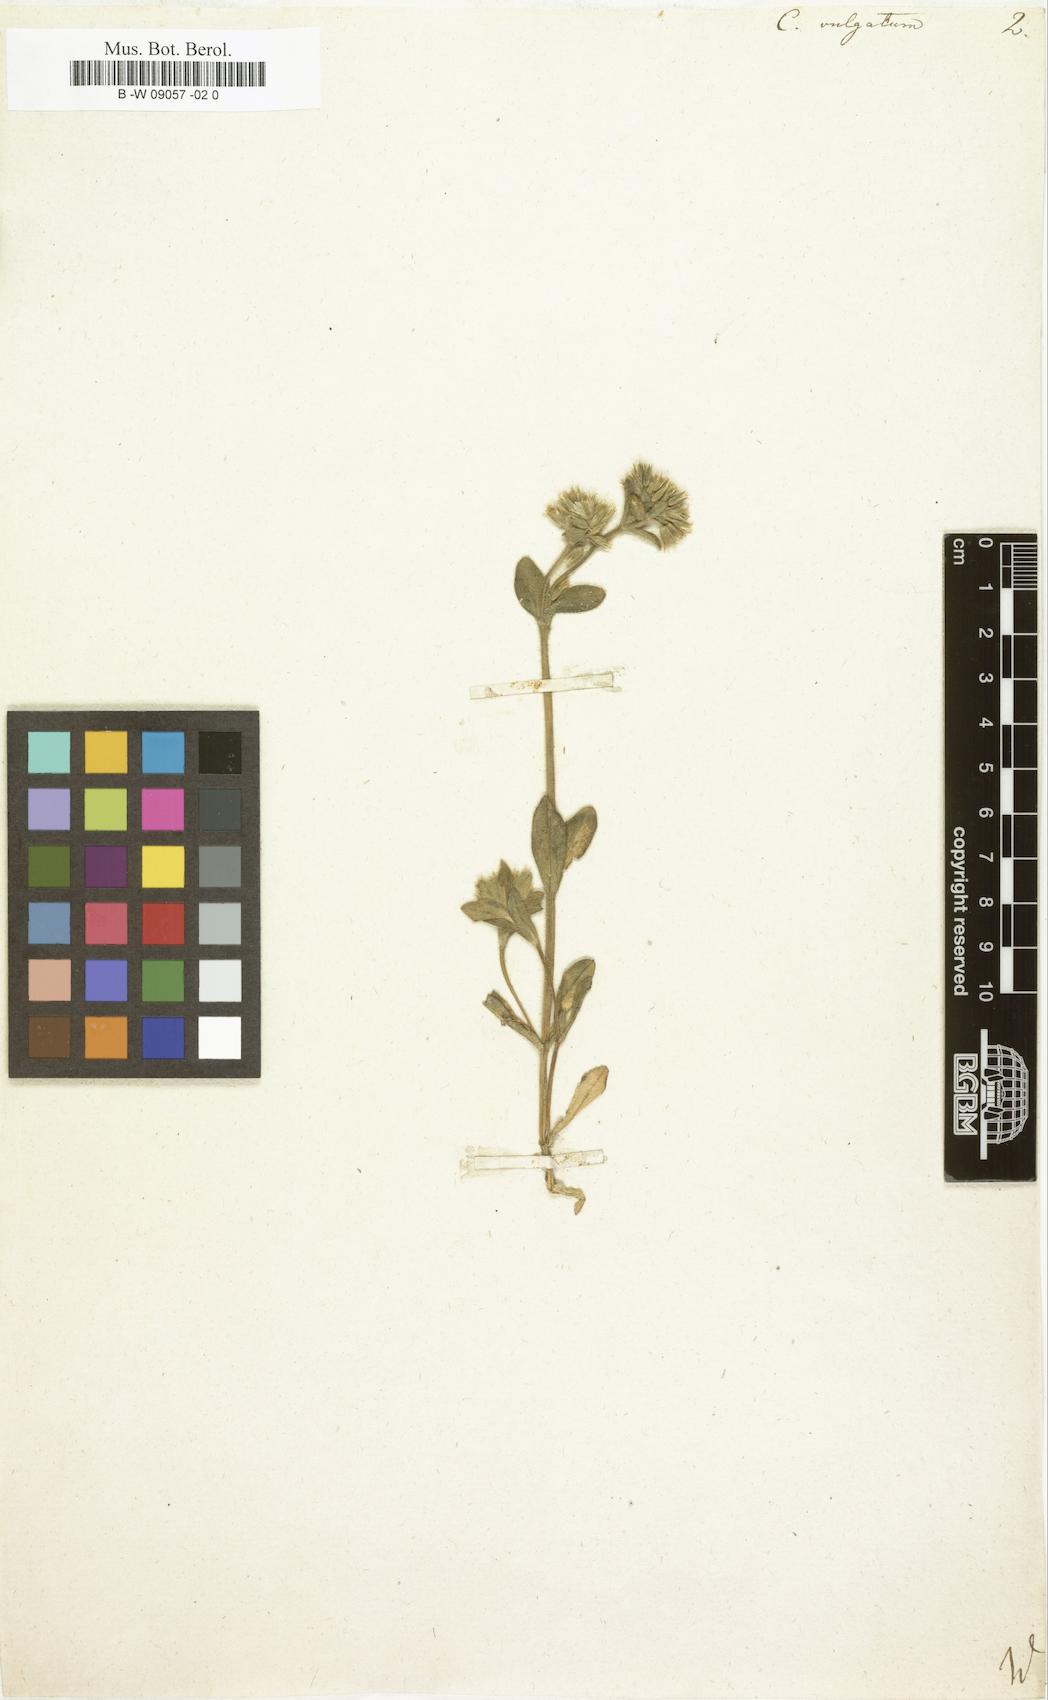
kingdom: Plantae
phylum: Tracheophyta
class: Magnoliopsida
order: Caryophyllales
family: Caryophyllaceae
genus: Cerastium
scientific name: Cerastium
